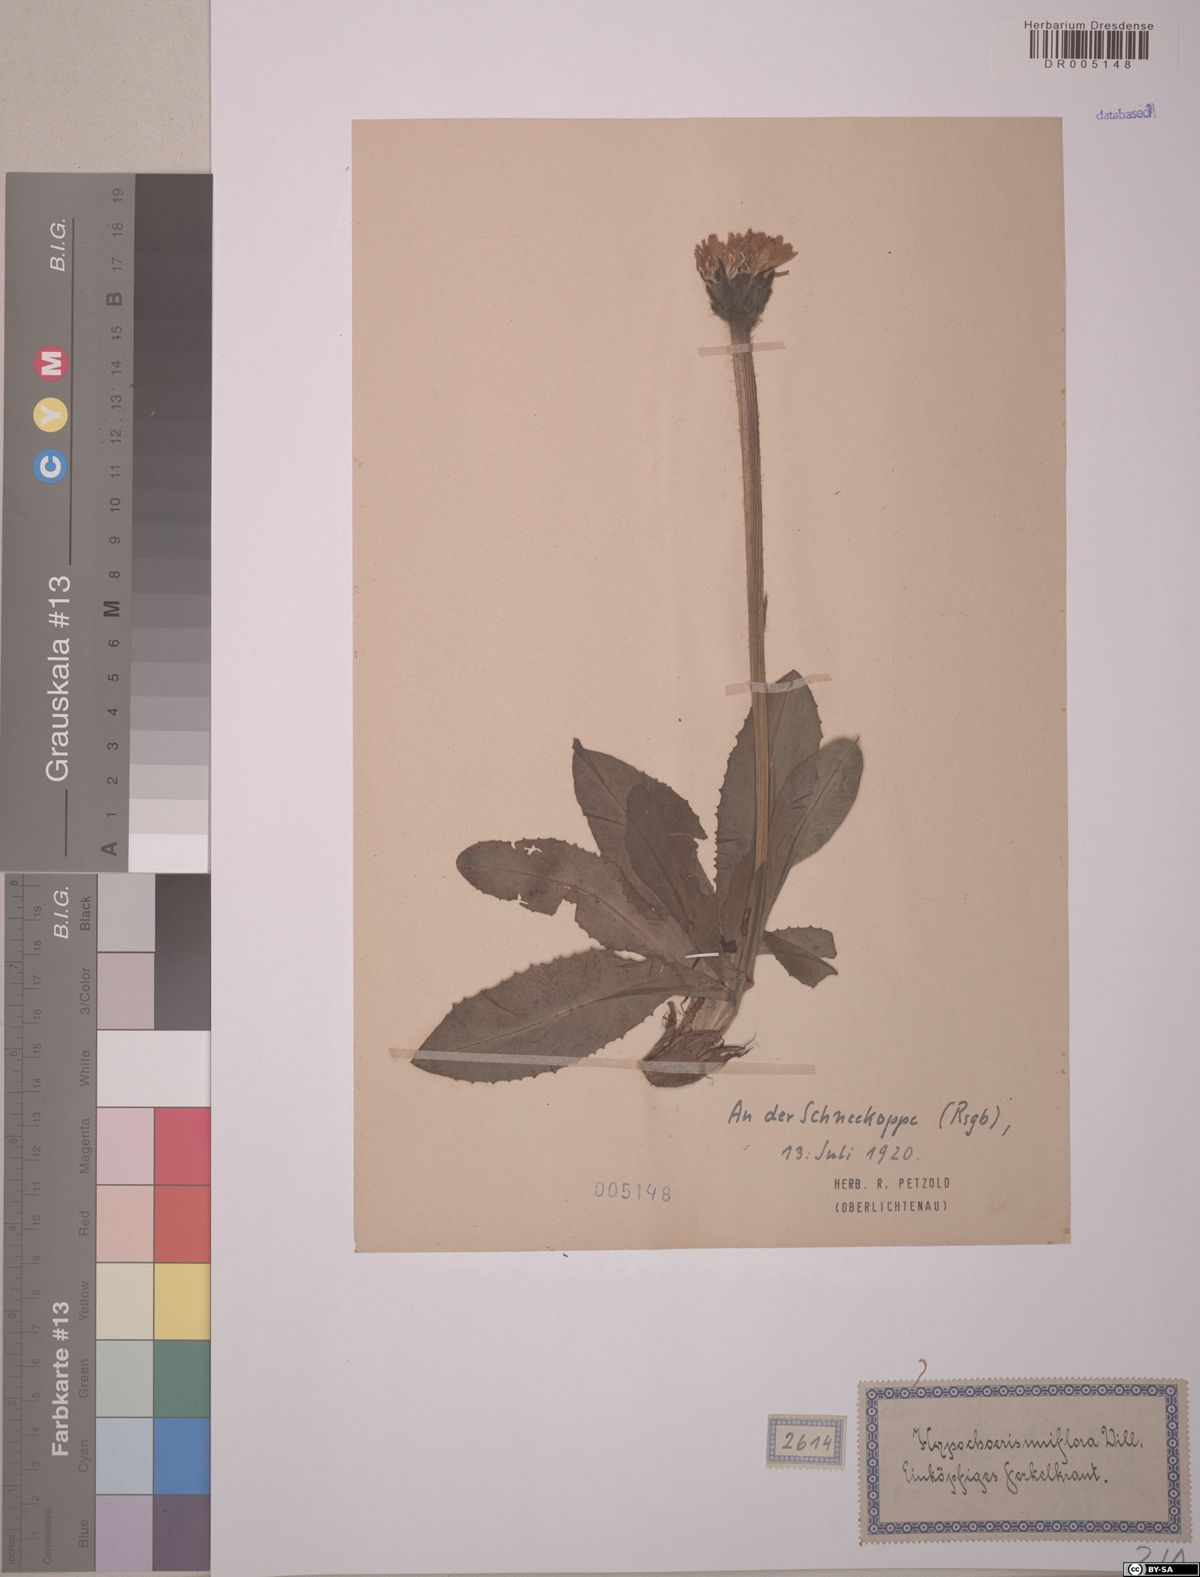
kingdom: Plantae
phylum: Tracheophyta
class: Magnoliopsida
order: Asterales
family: Asteraceae
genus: Trommsdorffia
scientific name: Trommsdorffia uniflora
